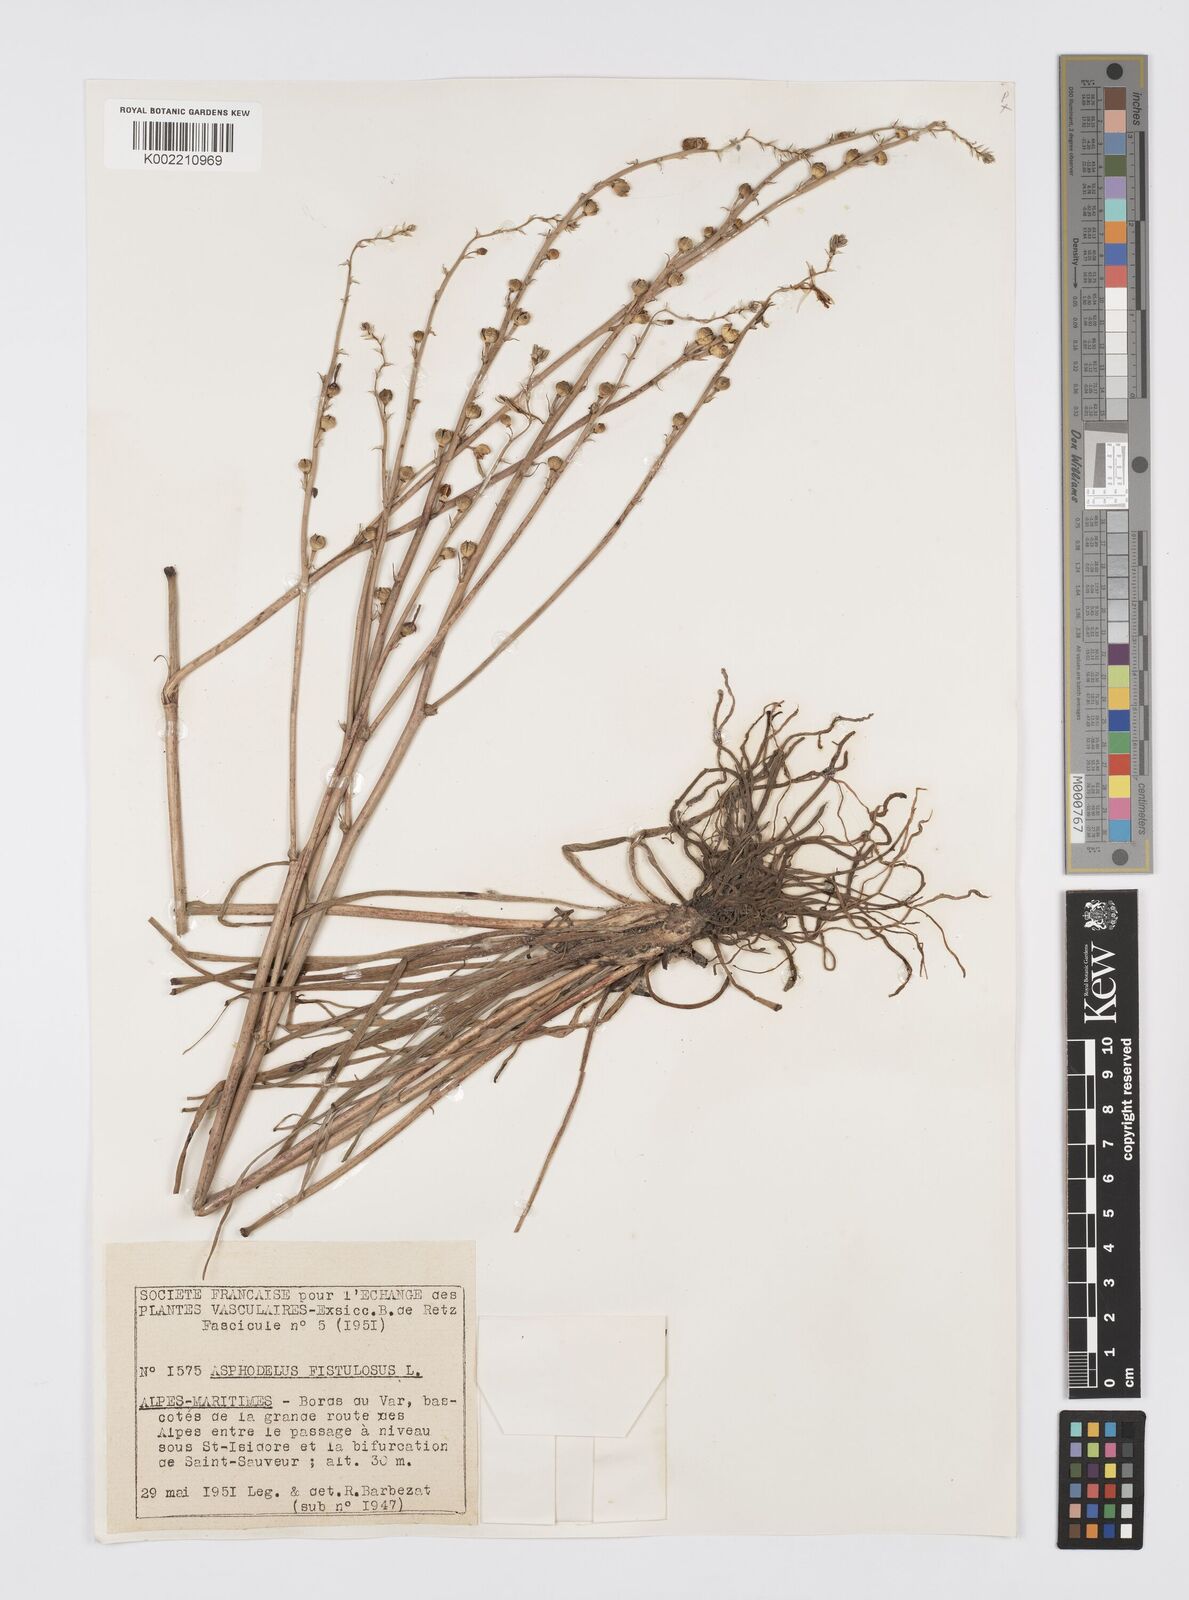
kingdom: Plantae
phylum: Tracheophyta
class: Liliopsida
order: Asparagales
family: Asphodelaceae
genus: Asphodelus
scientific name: Asphodelus fistulosus
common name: Onionweed
